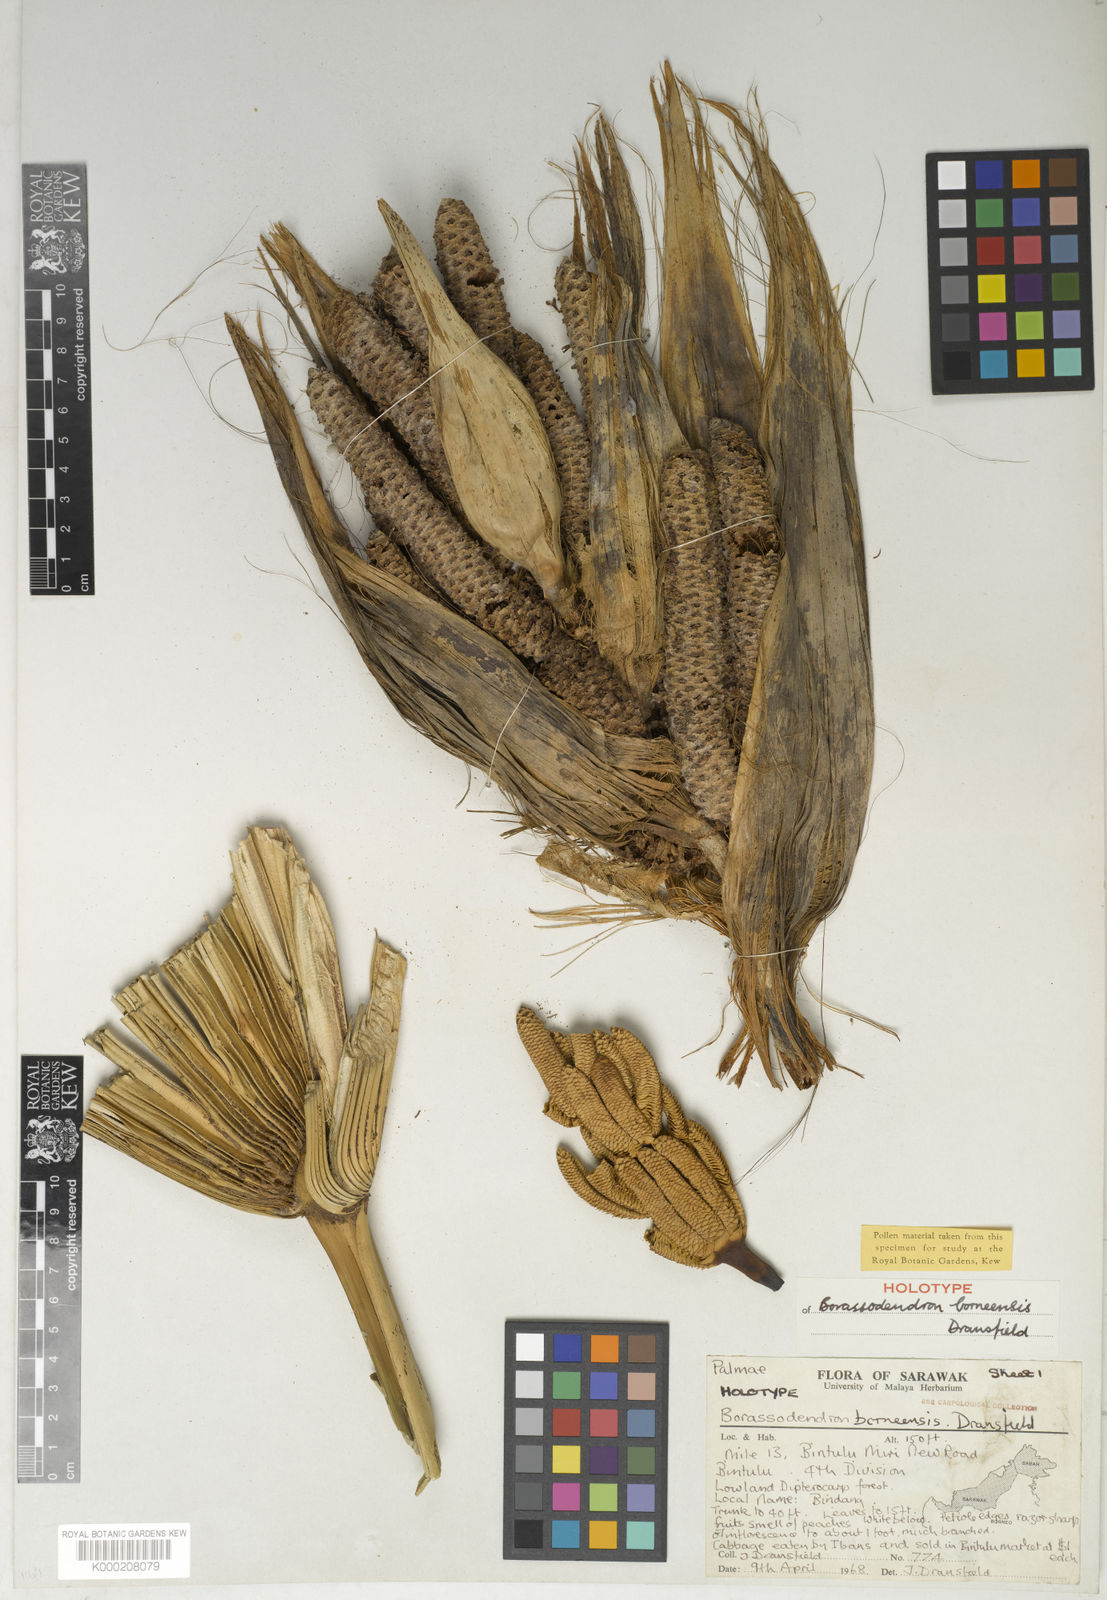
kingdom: Plantae
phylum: Tracheophyta
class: Liliopsida
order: Arecales
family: Arecaceae
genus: Borassodendron
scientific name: Borassodendron borneense
